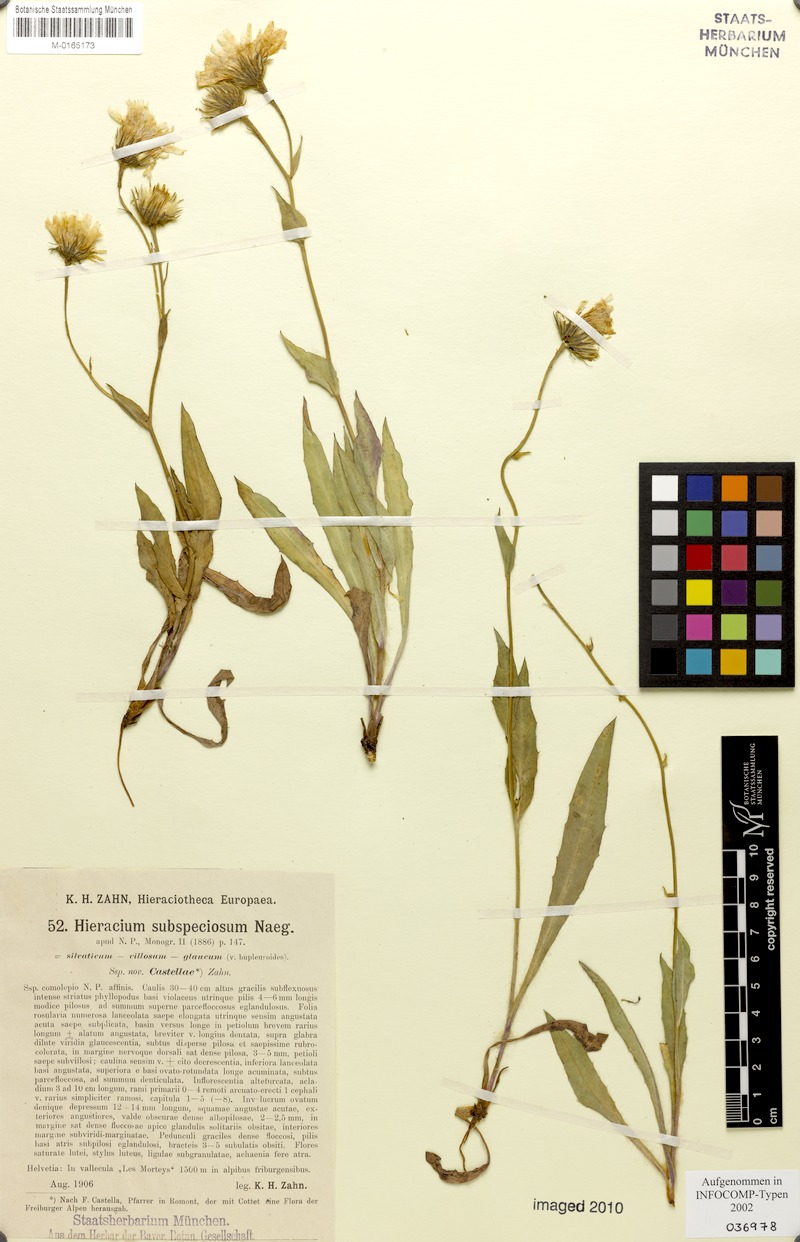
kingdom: Plantae
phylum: Tracheophyta
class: Magnoliopsida
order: Asterales
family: Asteraceae
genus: Hieracium
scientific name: Hieracium subspeciosum
